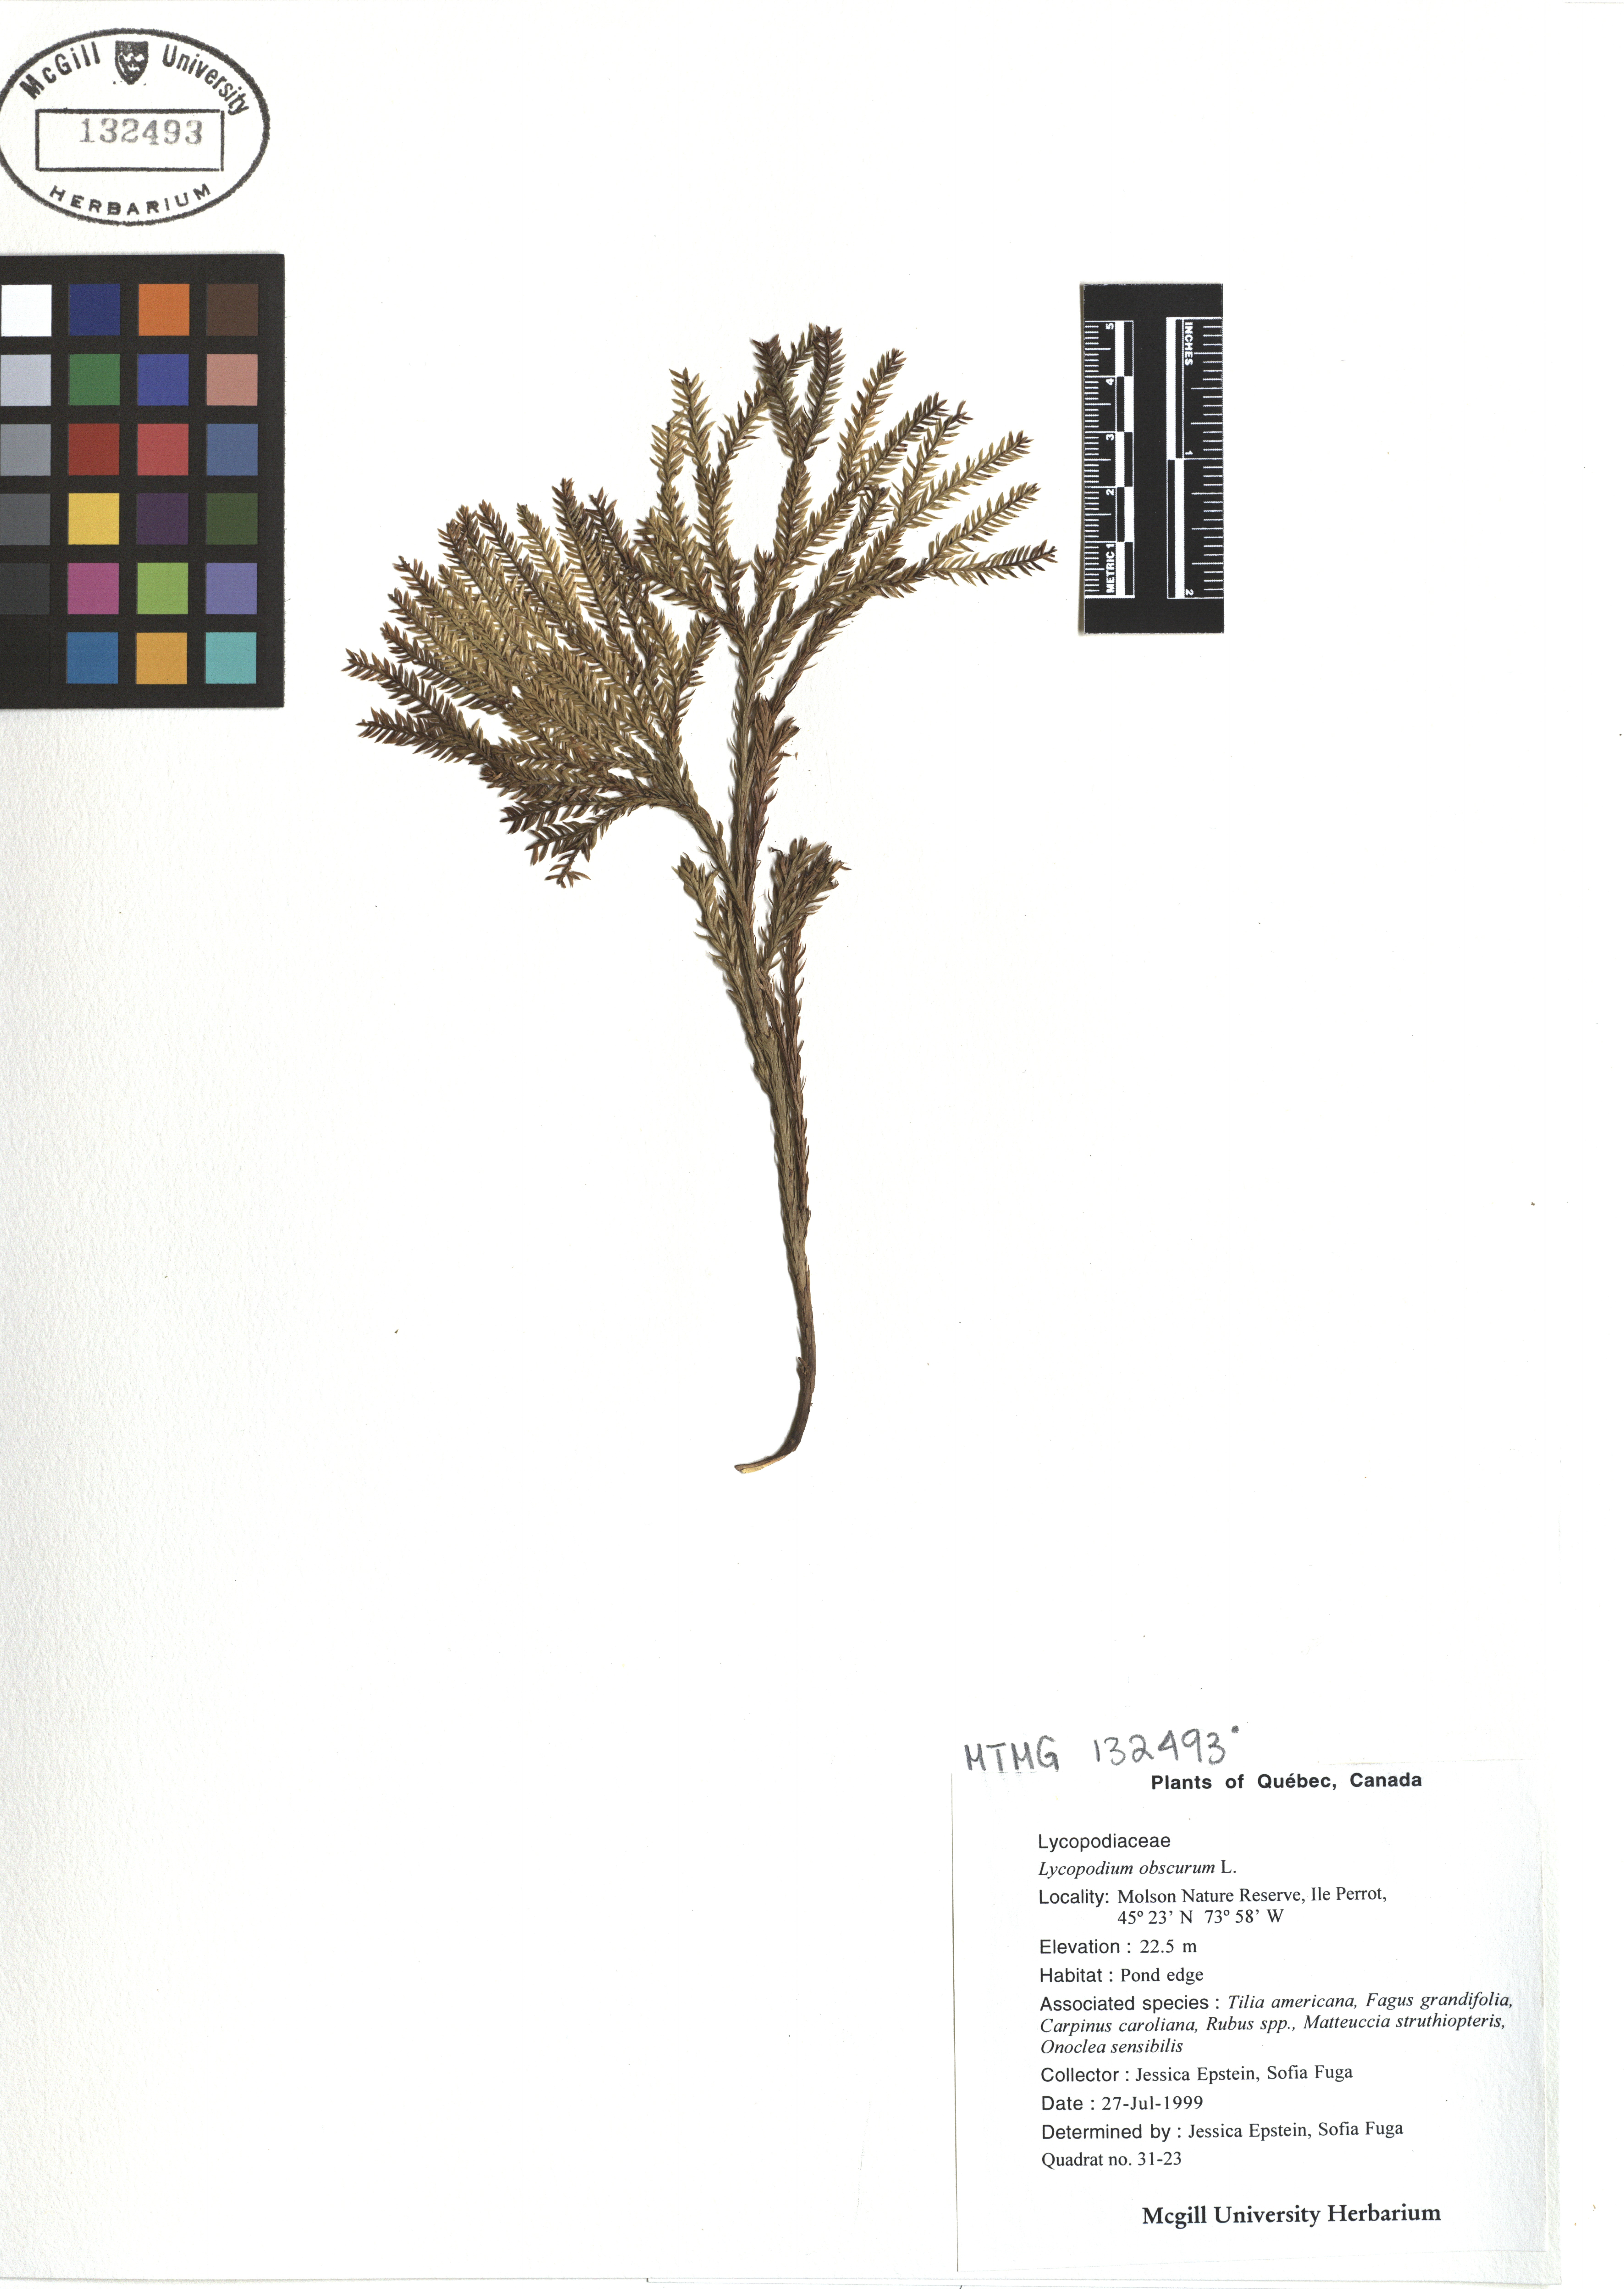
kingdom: Plantae
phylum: Tracheophyta
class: Lycopodiopsida
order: Lycopodiales
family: Lycopodiaceae
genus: Dendrolycopodium
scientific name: Dendrolycopodium obscurum
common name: Common ground-pine
